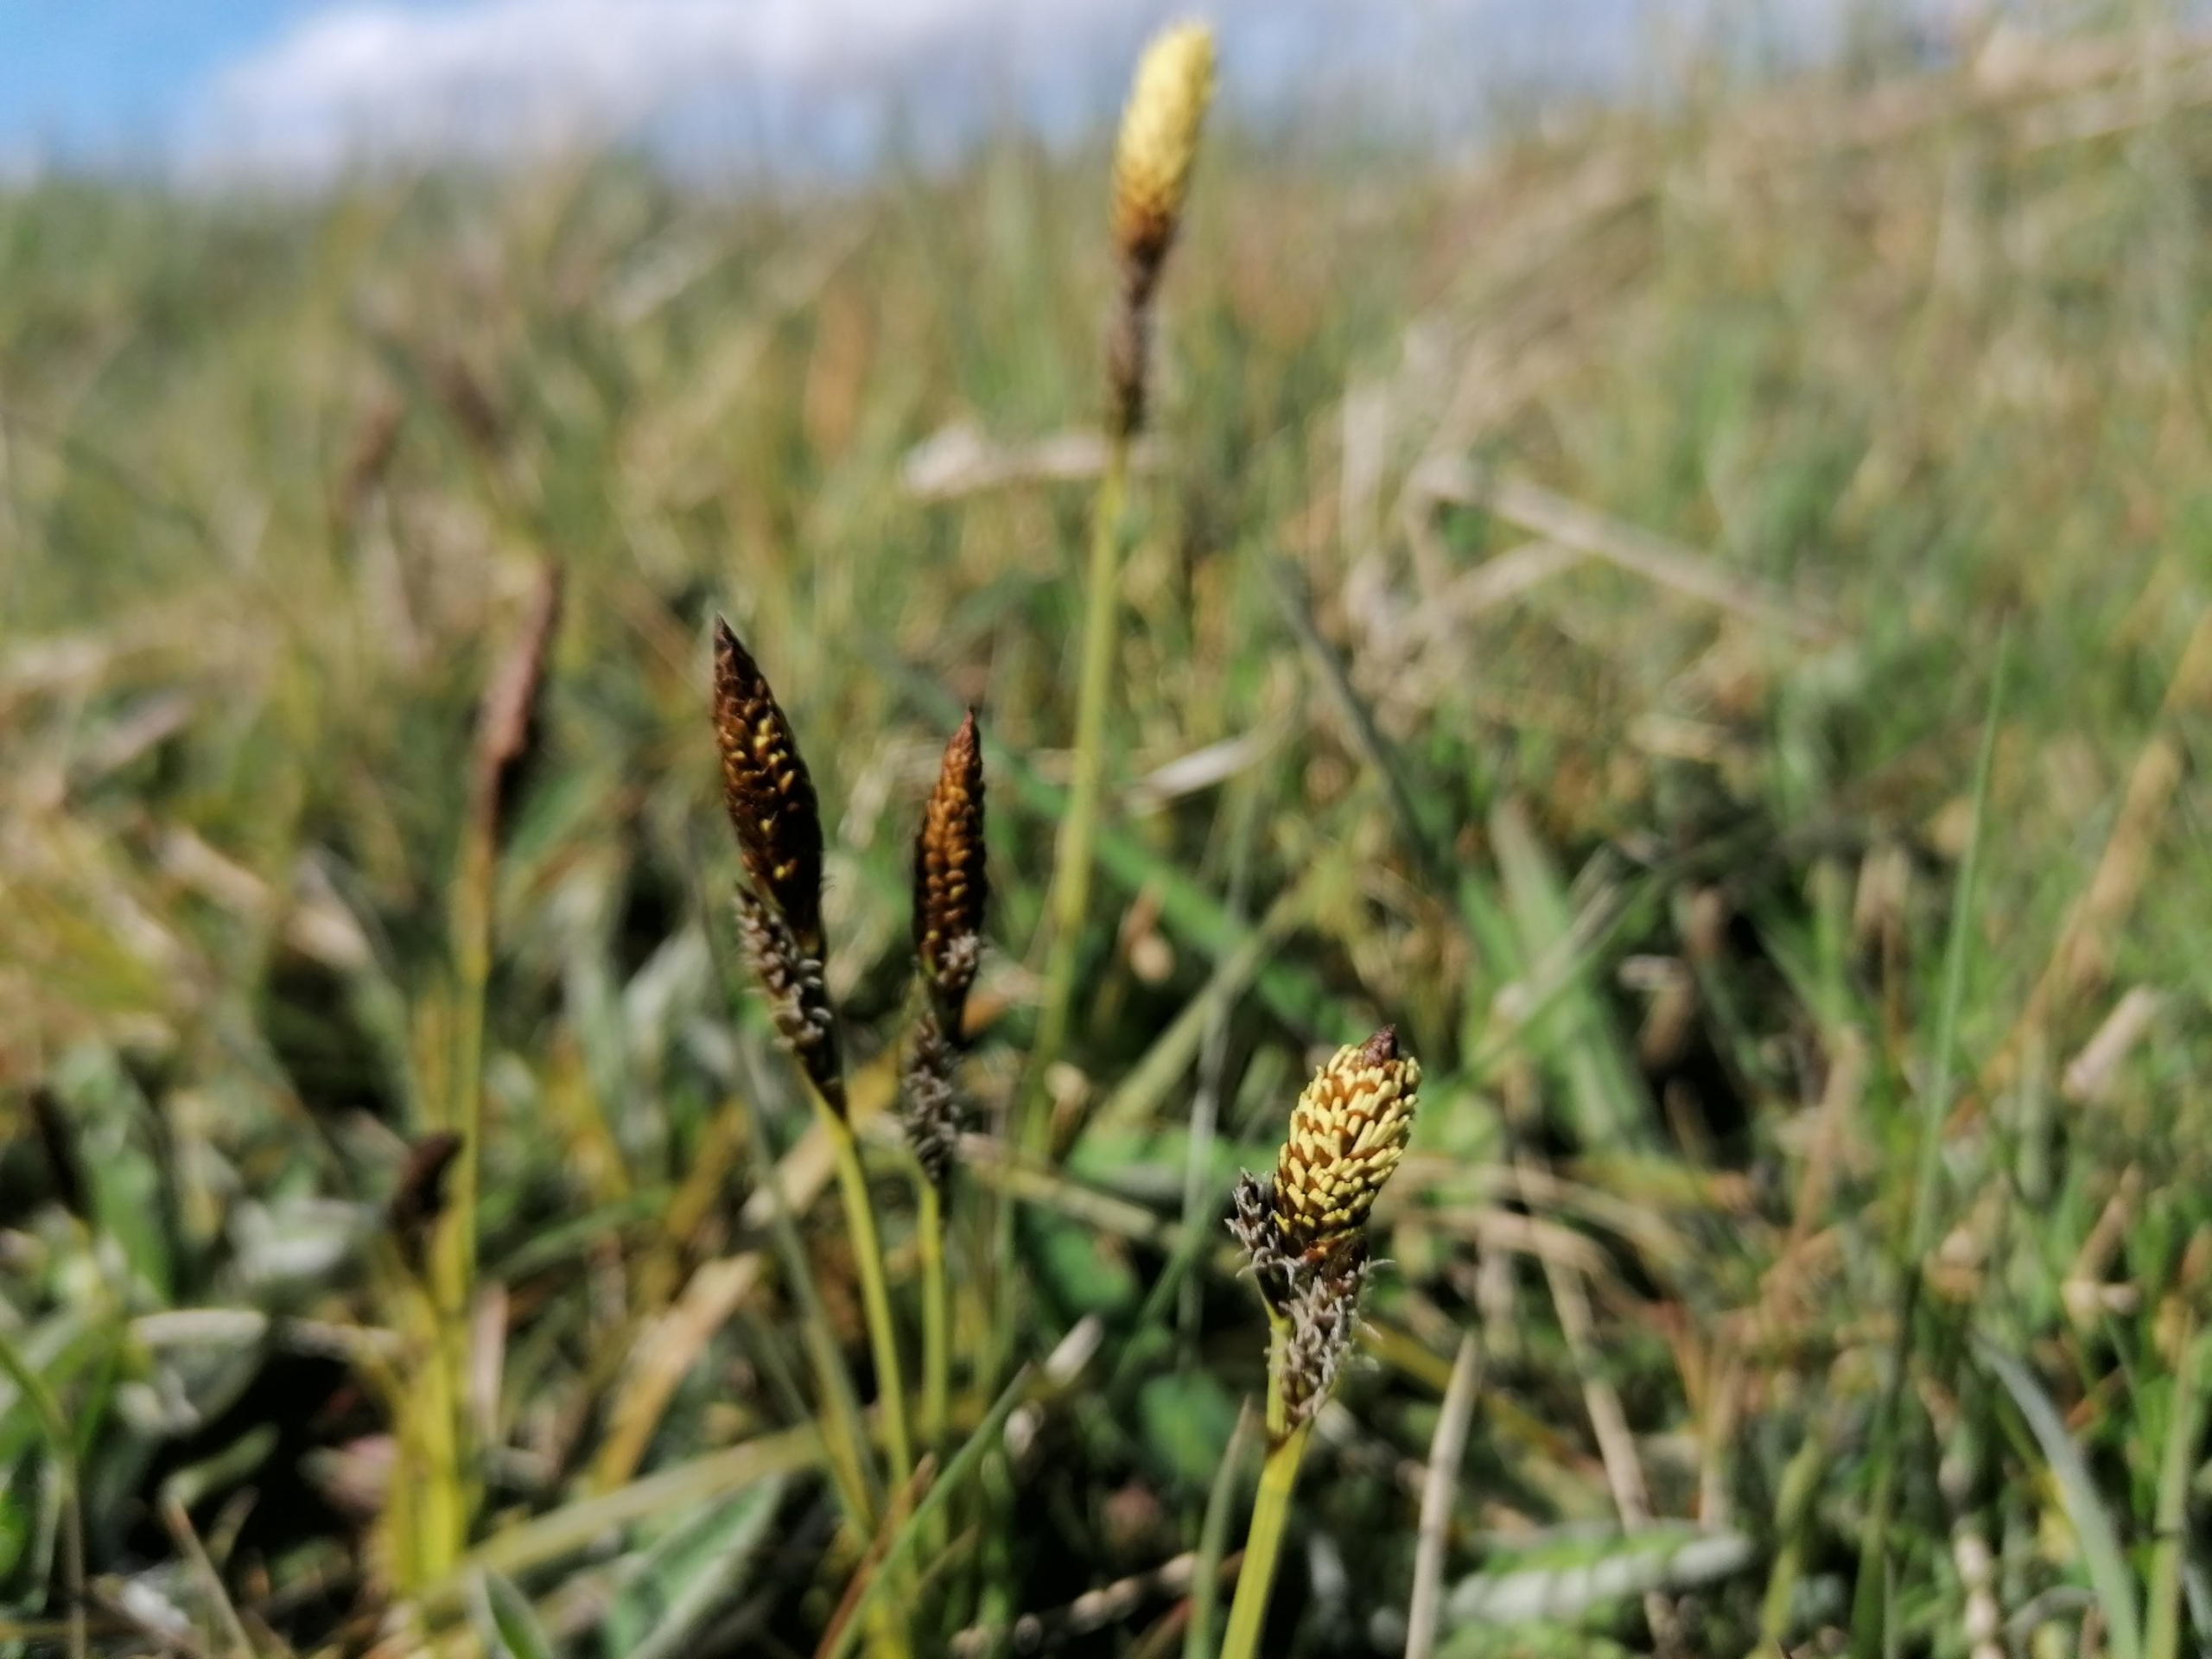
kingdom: Plantae
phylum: Tracheophyta
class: Liliopsida
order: Poales
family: Cyperaceae
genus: Carex
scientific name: Carex caryophyllea
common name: Vår-star
